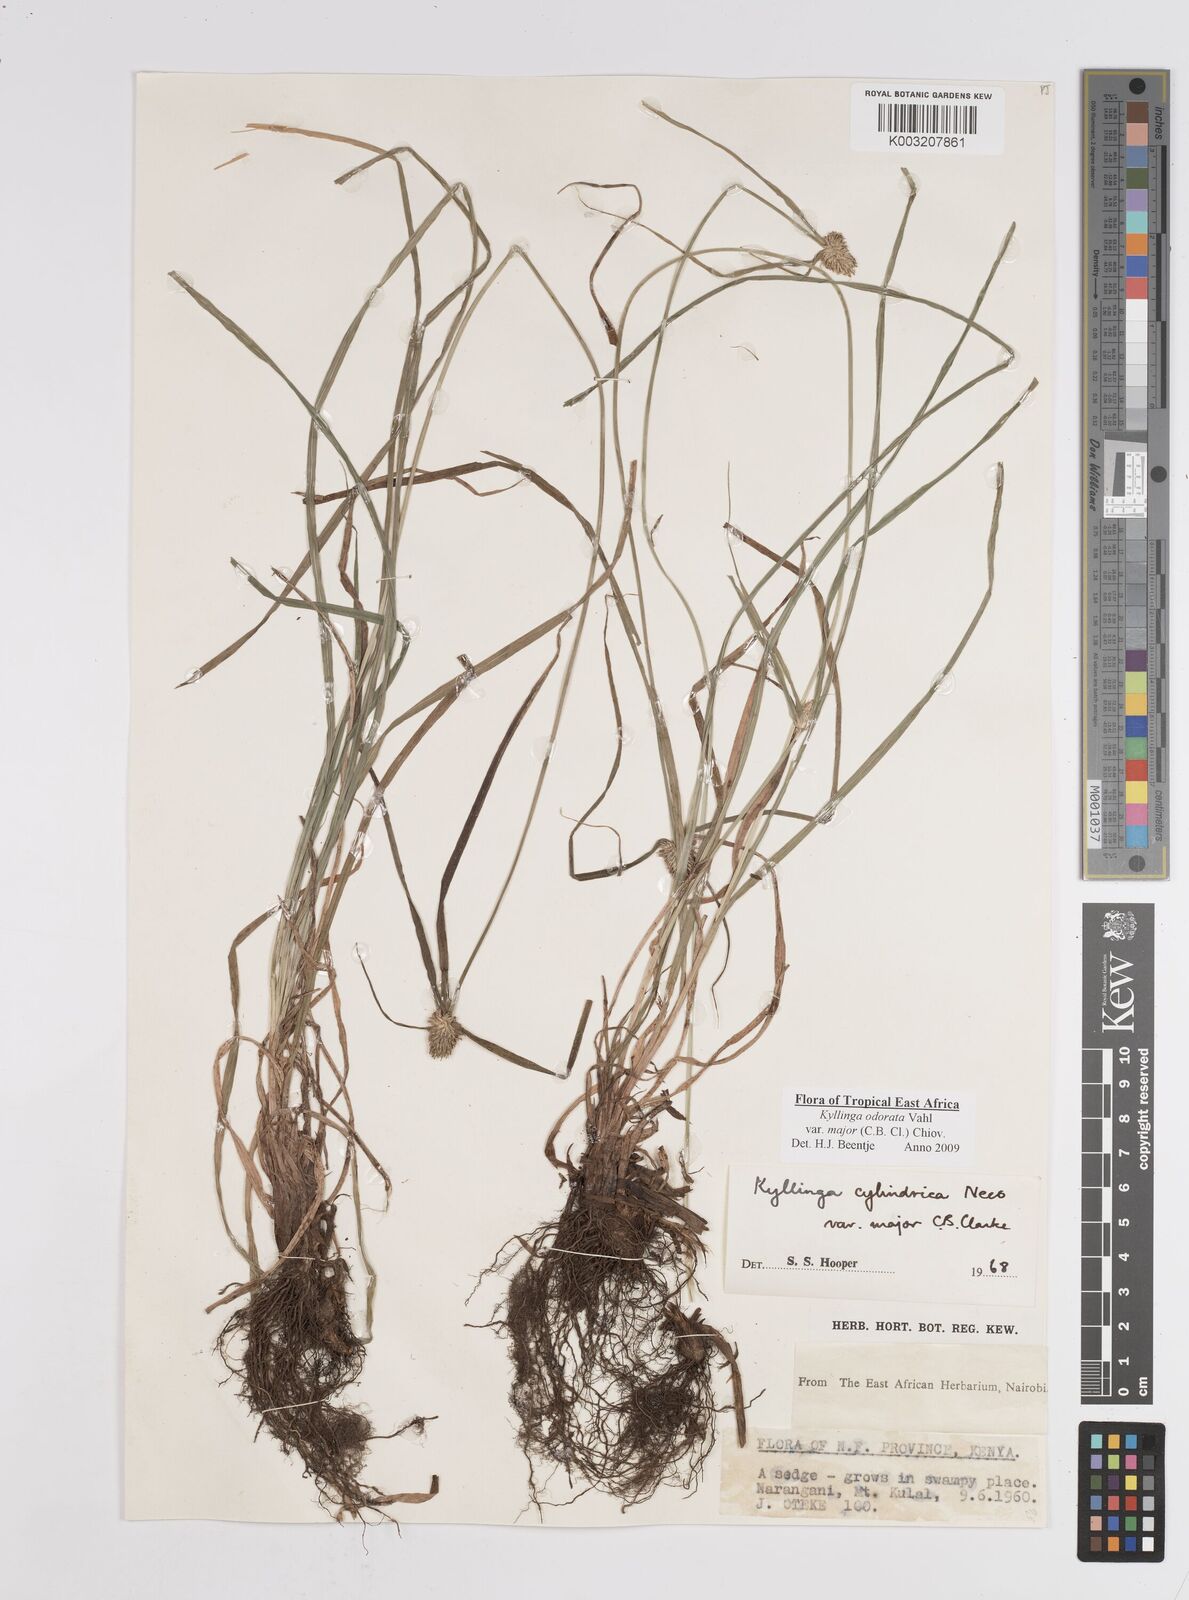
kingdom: Plantae
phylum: Tracheophyta
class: Liliopsida
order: Poales
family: Cyperaceae
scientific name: Cyperaceae
